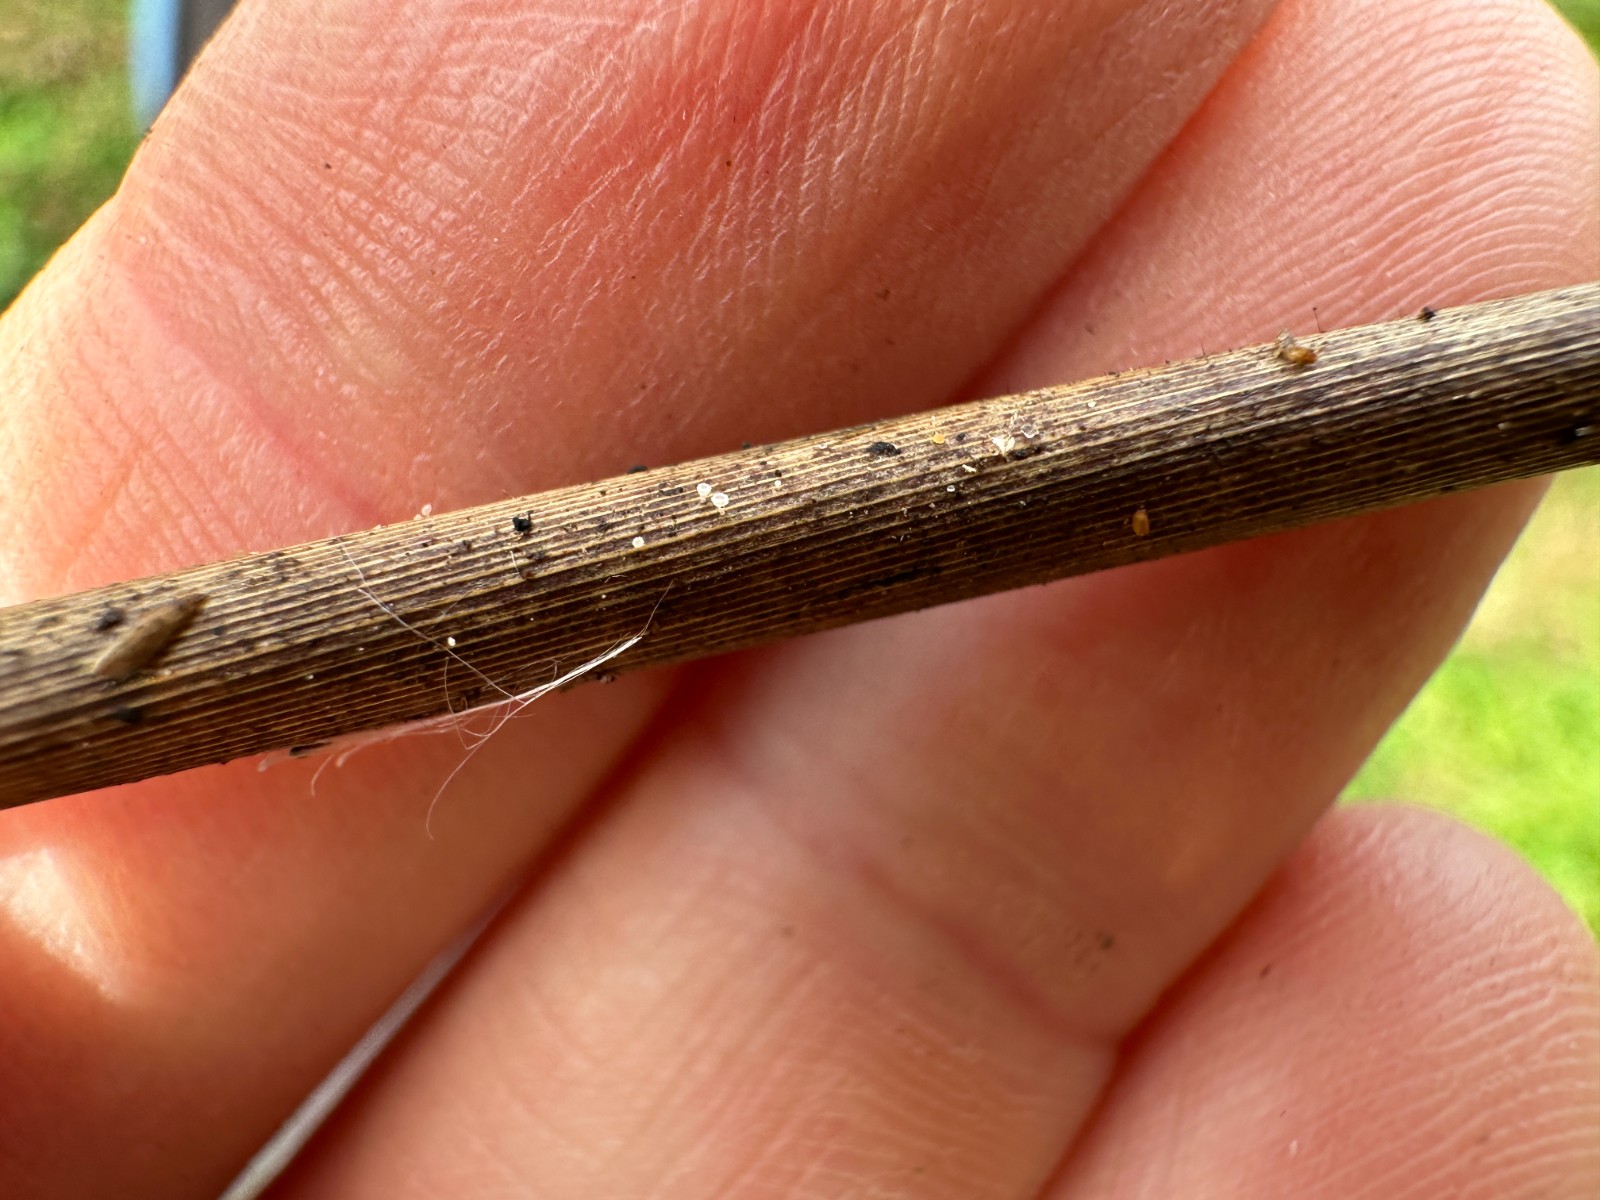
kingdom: Fungi
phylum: Ascomycota
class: Leotiomycetes
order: Helotiales
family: Lachnaceae
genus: Lachnum
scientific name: Lachnum apalum
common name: siv-frynseskive
